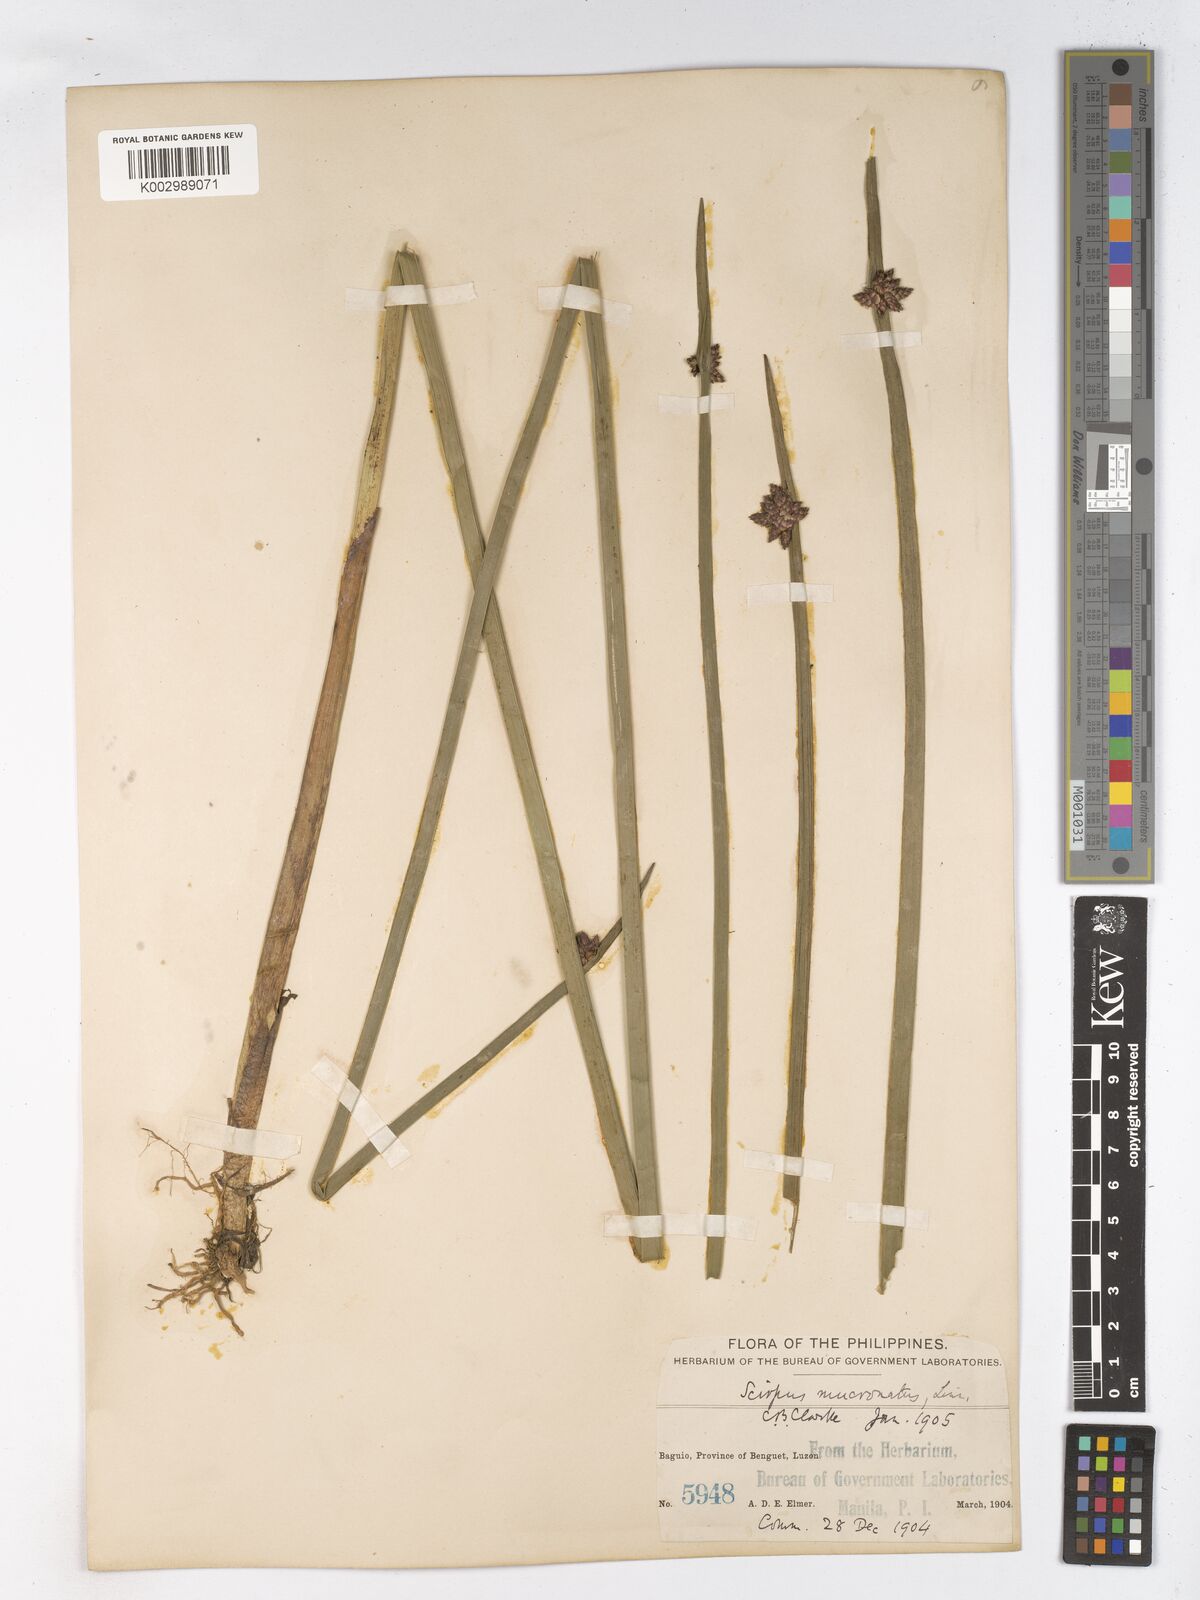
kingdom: Plantae
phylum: Tracheophyta
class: Liliopsida
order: Poales
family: Cyperaceae
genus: Schoenoplectiella
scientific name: Schoenoplectiella mucronata
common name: Bog bulrush
